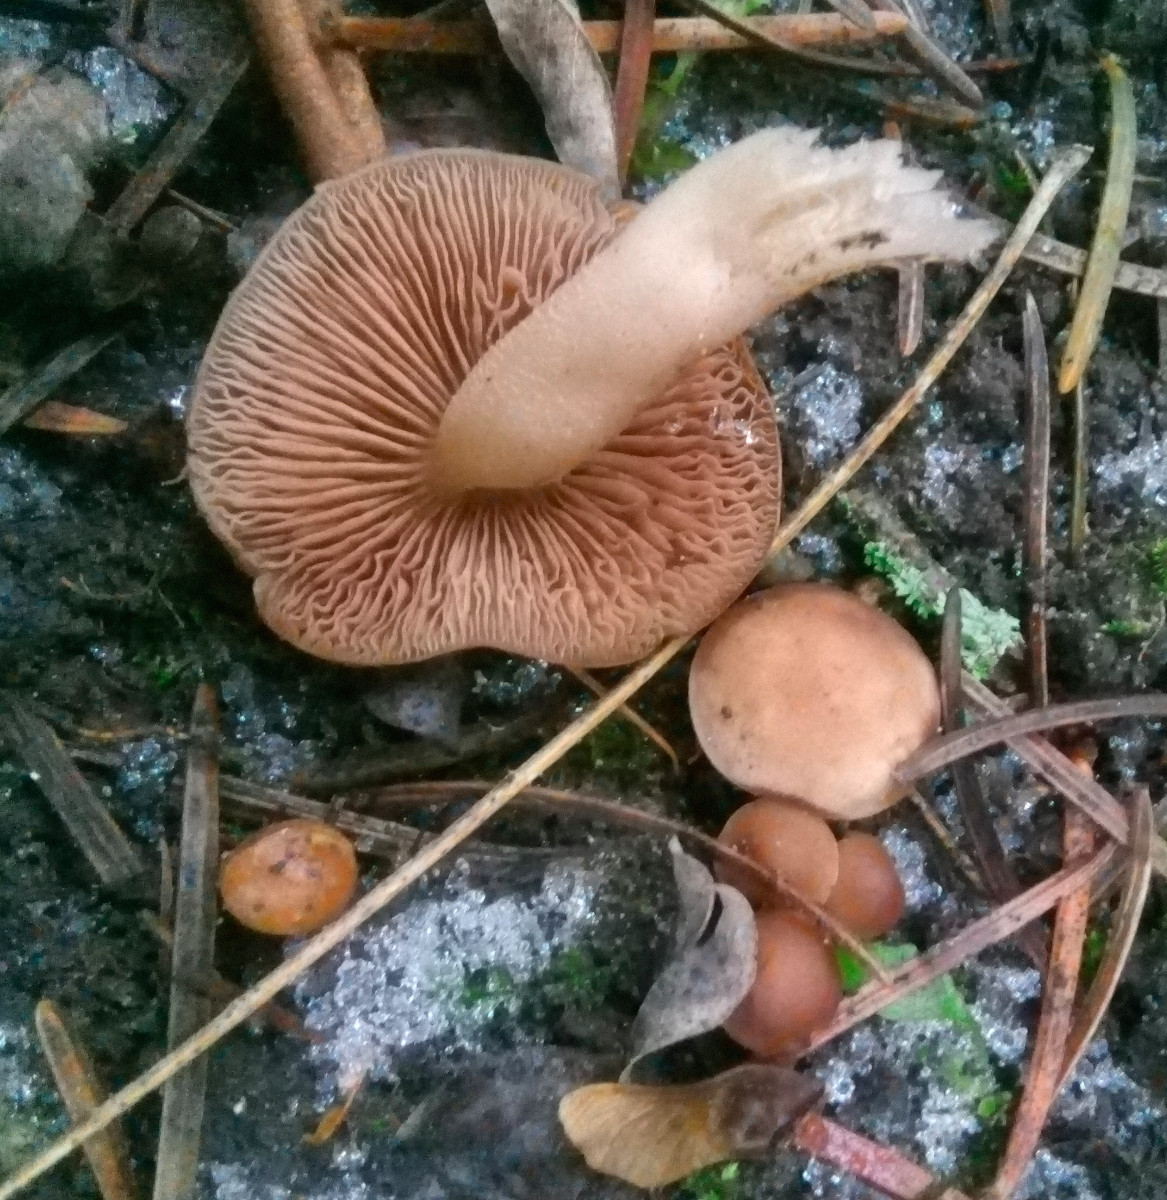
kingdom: Fungi
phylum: Basidiomycota
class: Agaricomycetes
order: Agaricales
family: Psathyrellaceae
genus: Homophron
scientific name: Homophron spadiceum
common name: daddelbrun mørkhat
